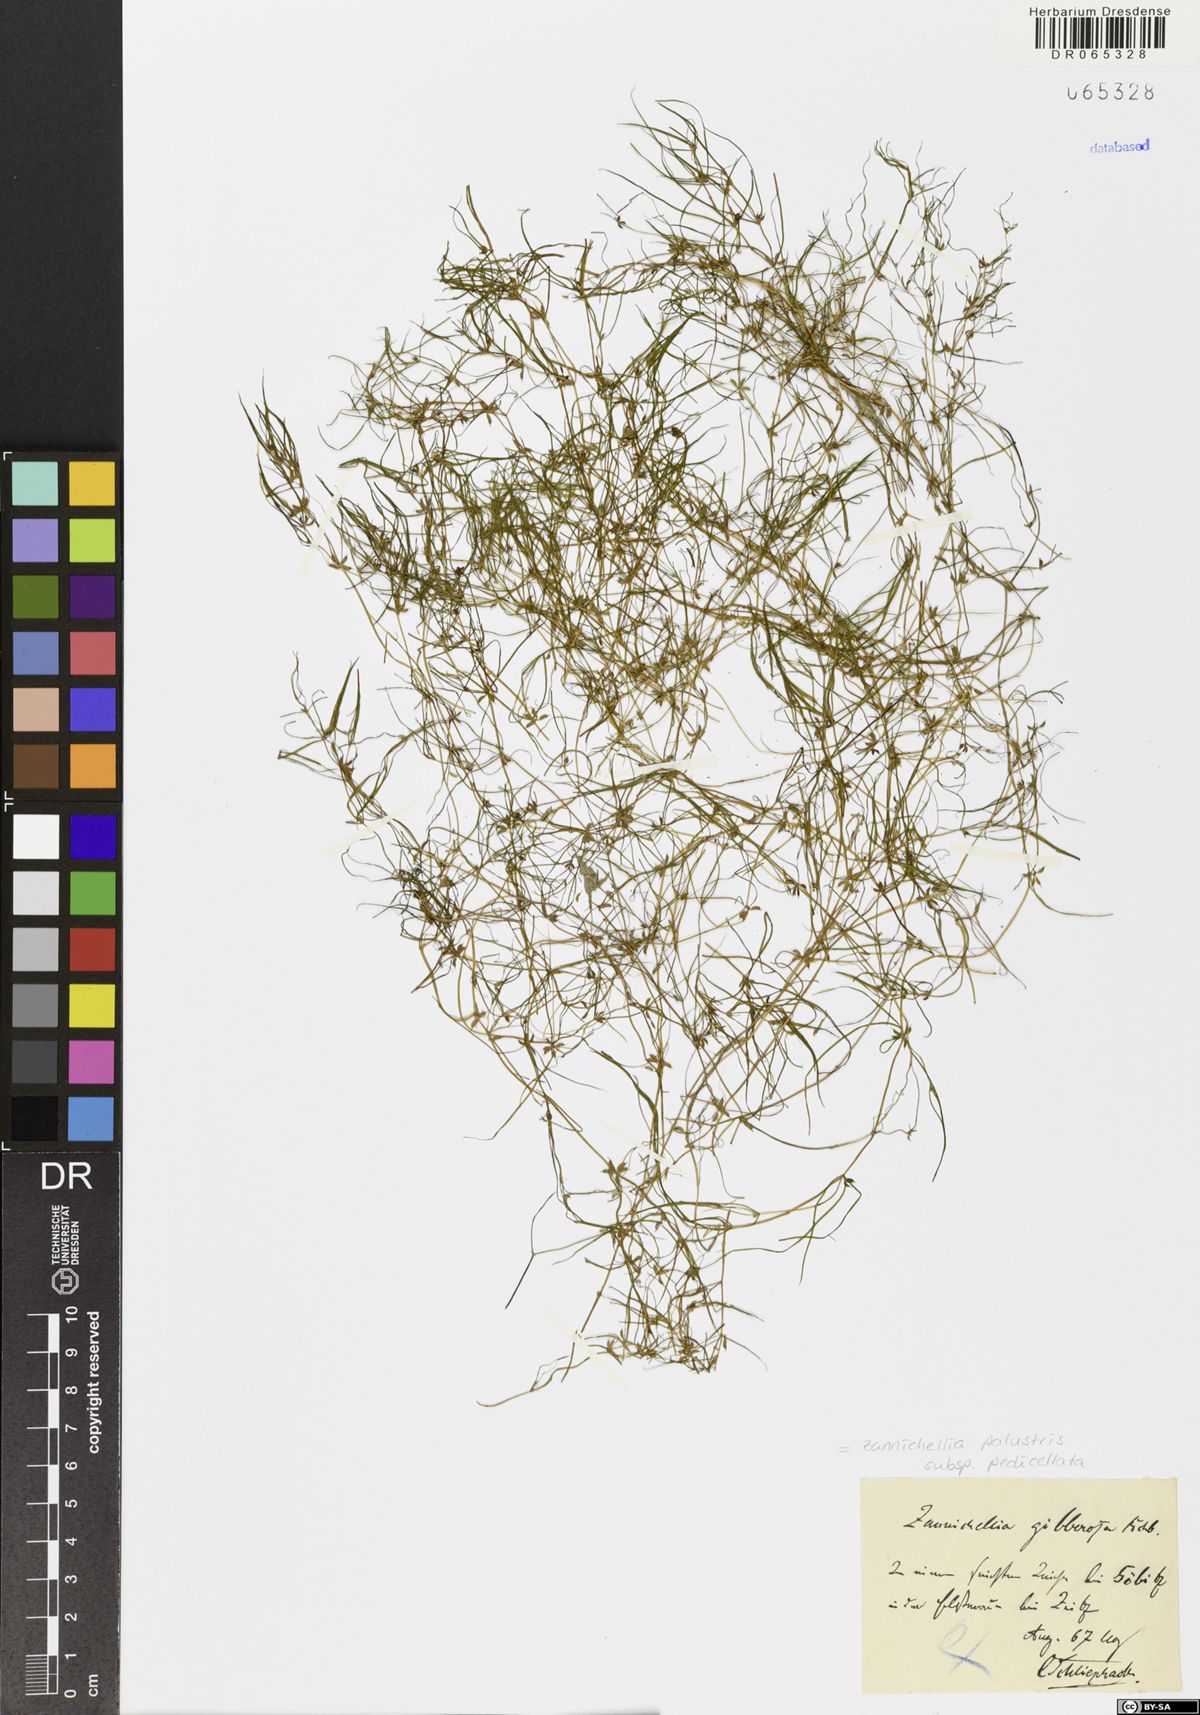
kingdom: Plantae
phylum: Tracheophyta
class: Liliopsida
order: Alismatales
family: Potamogetonaceae
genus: Zannichellia
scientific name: Zannichellia palustris
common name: Horned pondweed
